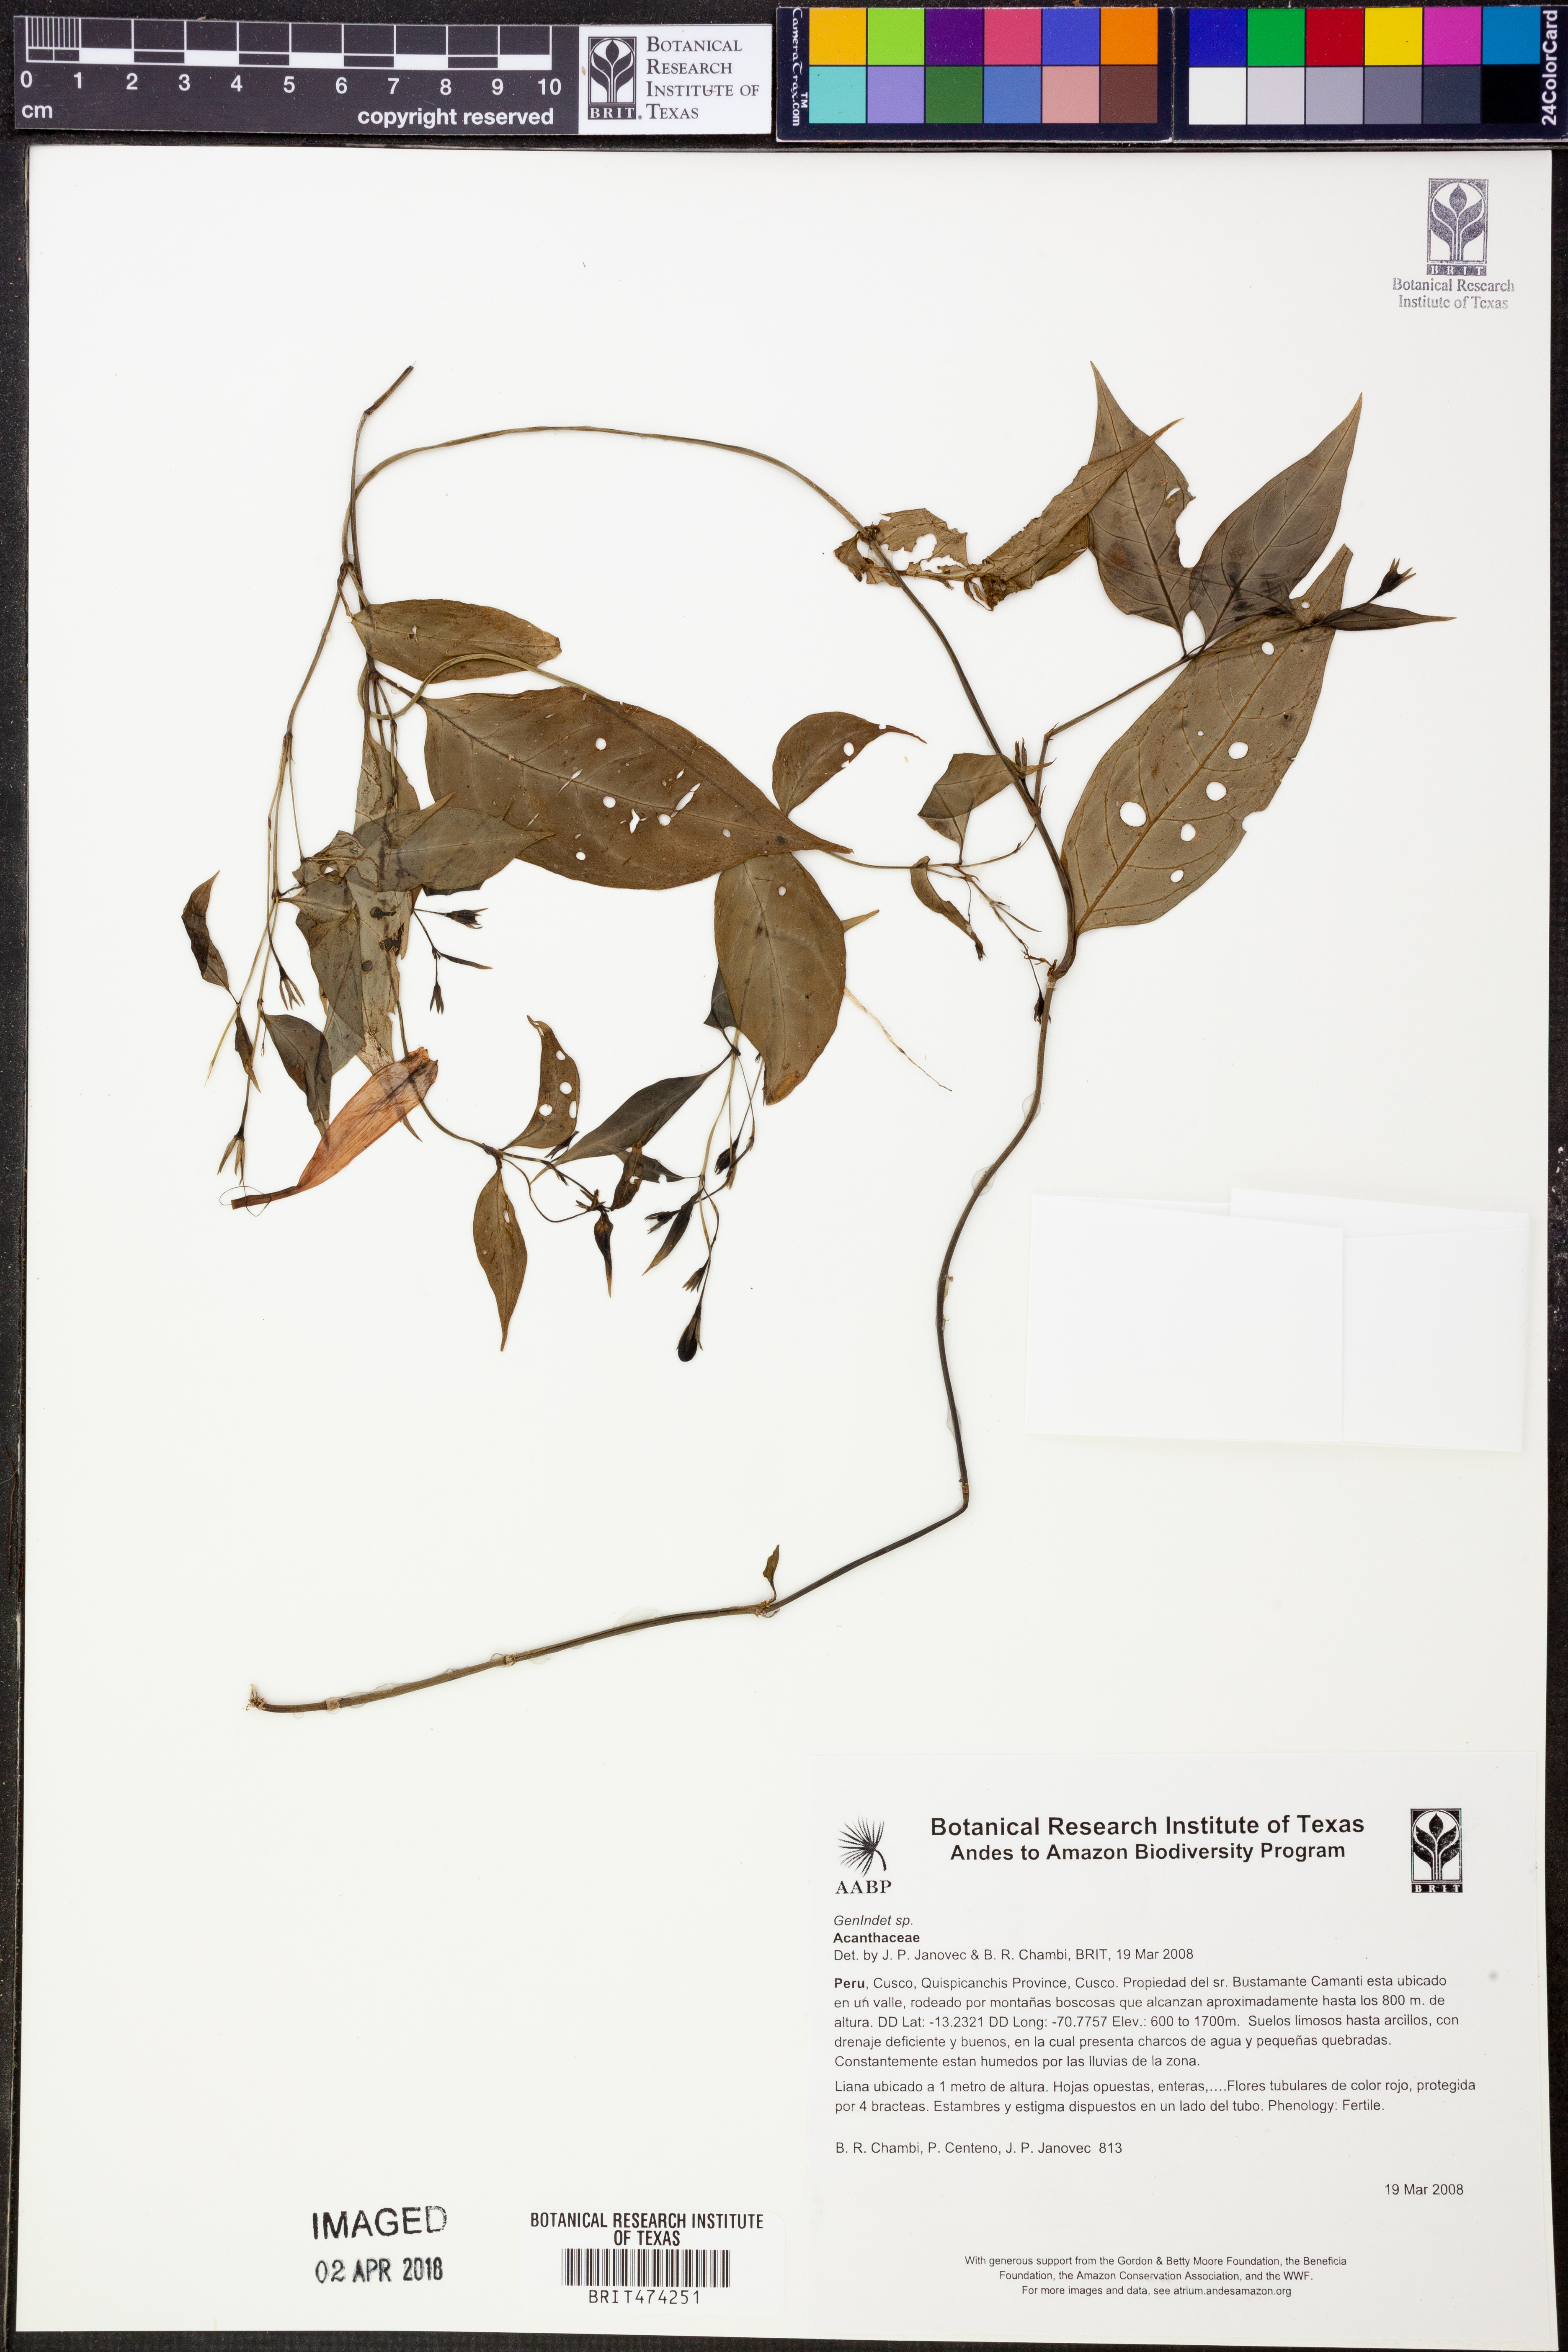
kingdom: Plantae
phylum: Tracheophyta
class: Magnoliopsida
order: Gentianales
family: Rubiaceae
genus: Manettia
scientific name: Manettia cordifolia
